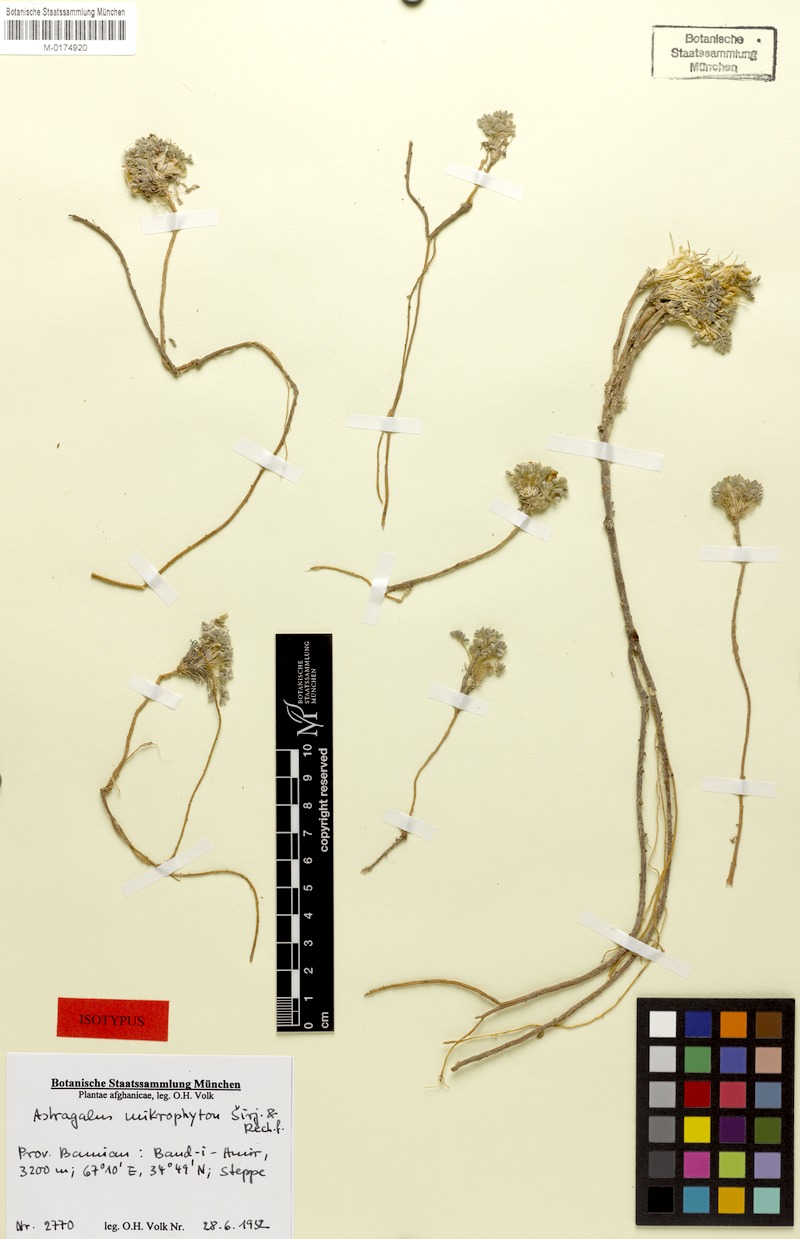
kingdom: Plantae
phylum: Tracheophyta
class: Magnoliopsida
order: Fabales
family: Fabaceae
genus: Astragalus
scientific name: Astragalus mikrophyton
